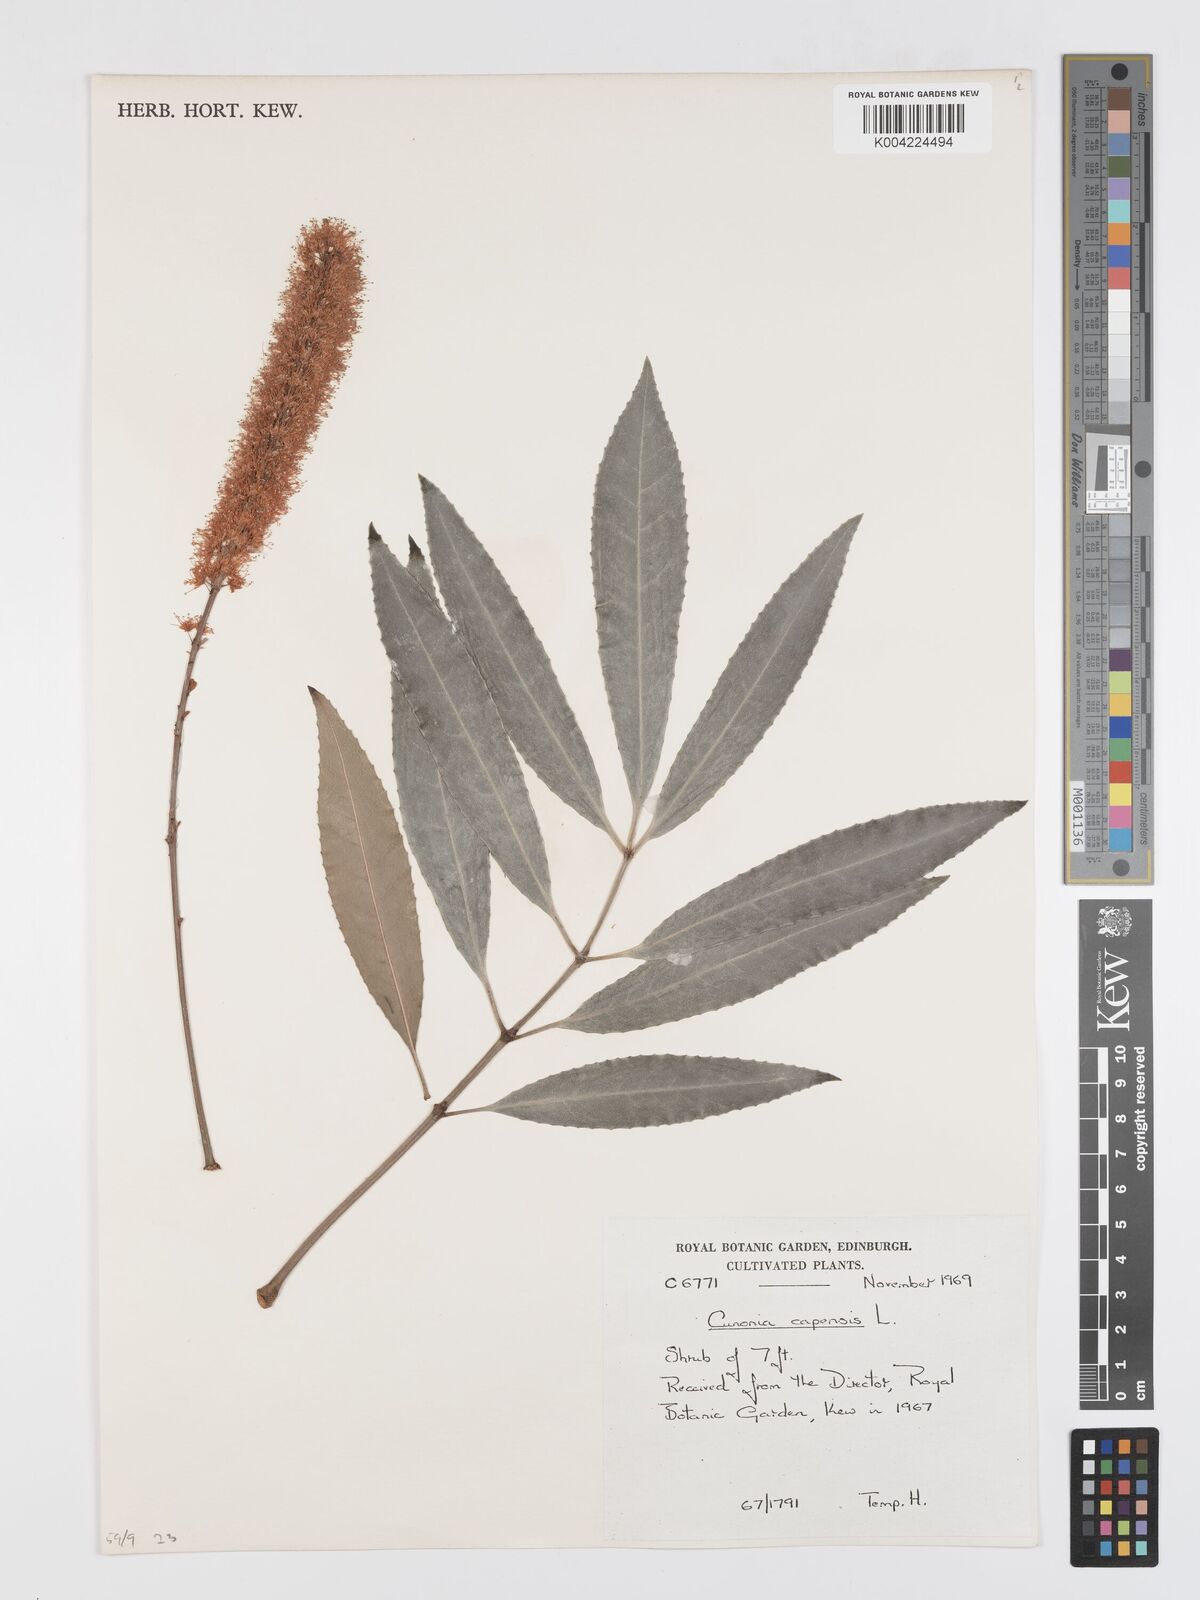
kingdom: Plantae
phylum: Tracheophyta
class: Magnoliopsida
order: Oxalidales
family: Cunoniaceae
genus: Cunonia
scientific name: Cunonia capensis
